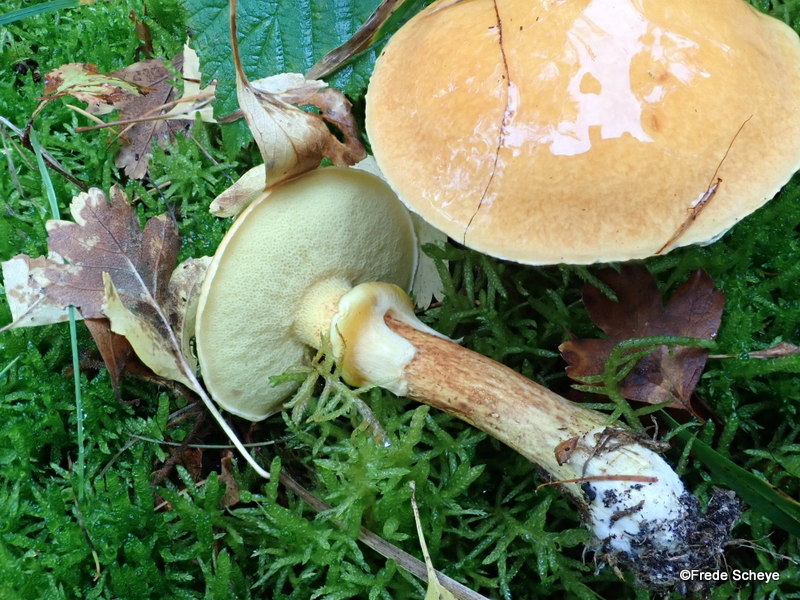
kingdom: Fungi
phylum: Basidiomycota
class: Agaricomycetes
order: Boletales
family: Suillaceae
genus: Suillus
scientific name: Suillus grevillei
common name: lærke-slimrørhat
